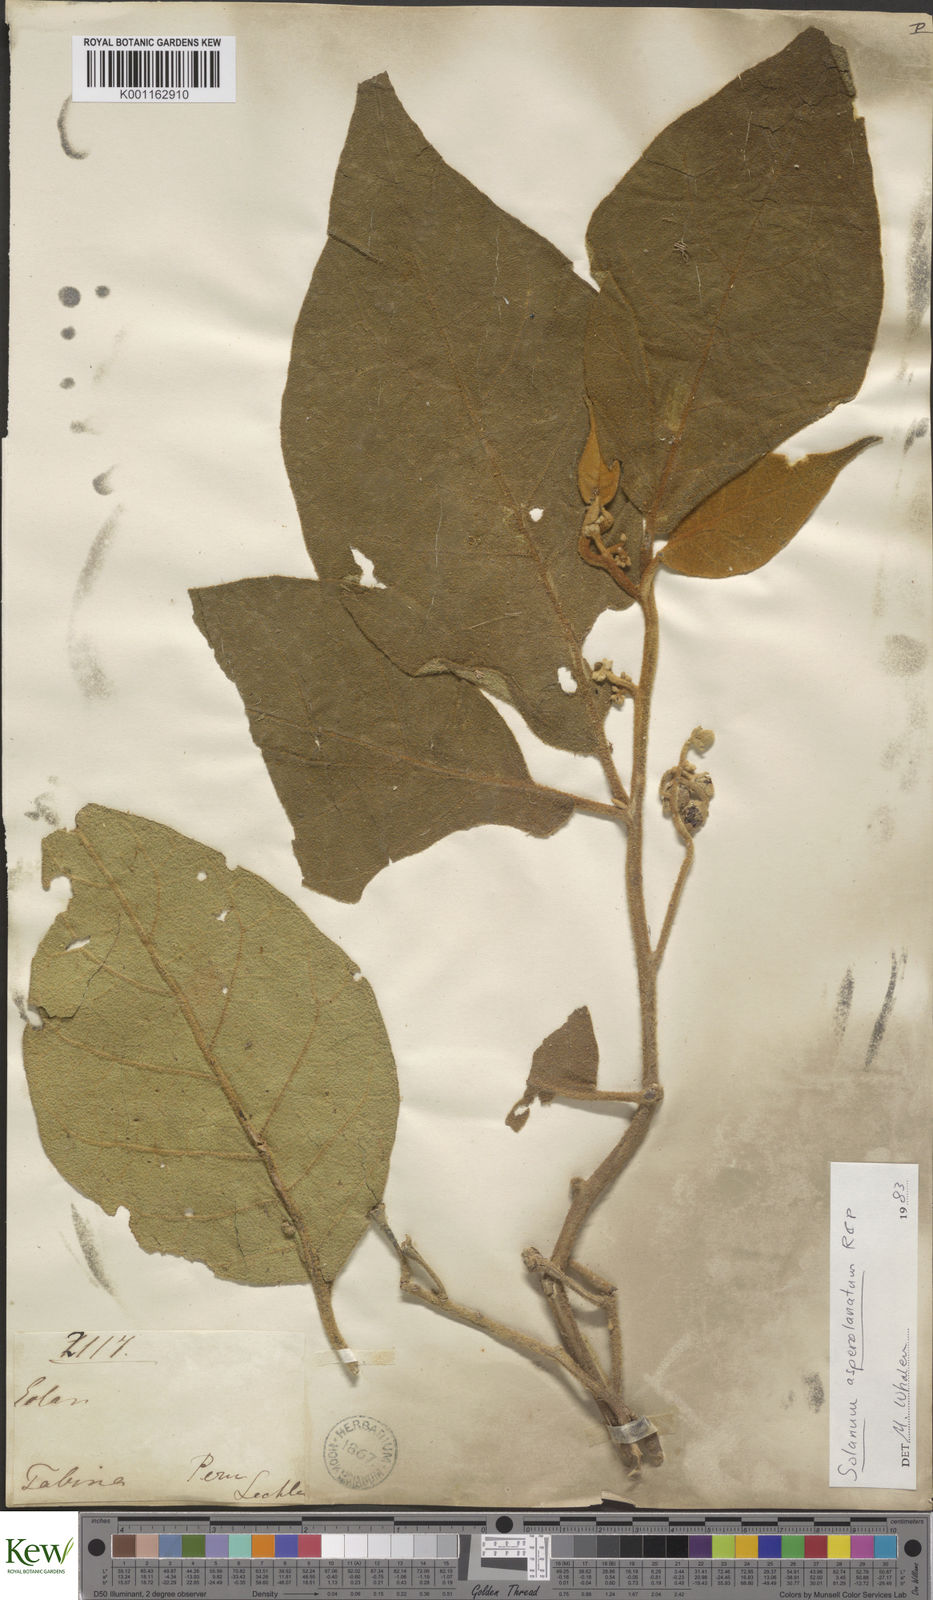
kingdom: Plantae
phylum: Tracheophyta
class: Magnoliopsida
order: Solanales
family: Solanaceae
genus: Solanum
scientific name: Solanum asperolanatum
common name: Devil's-fig
